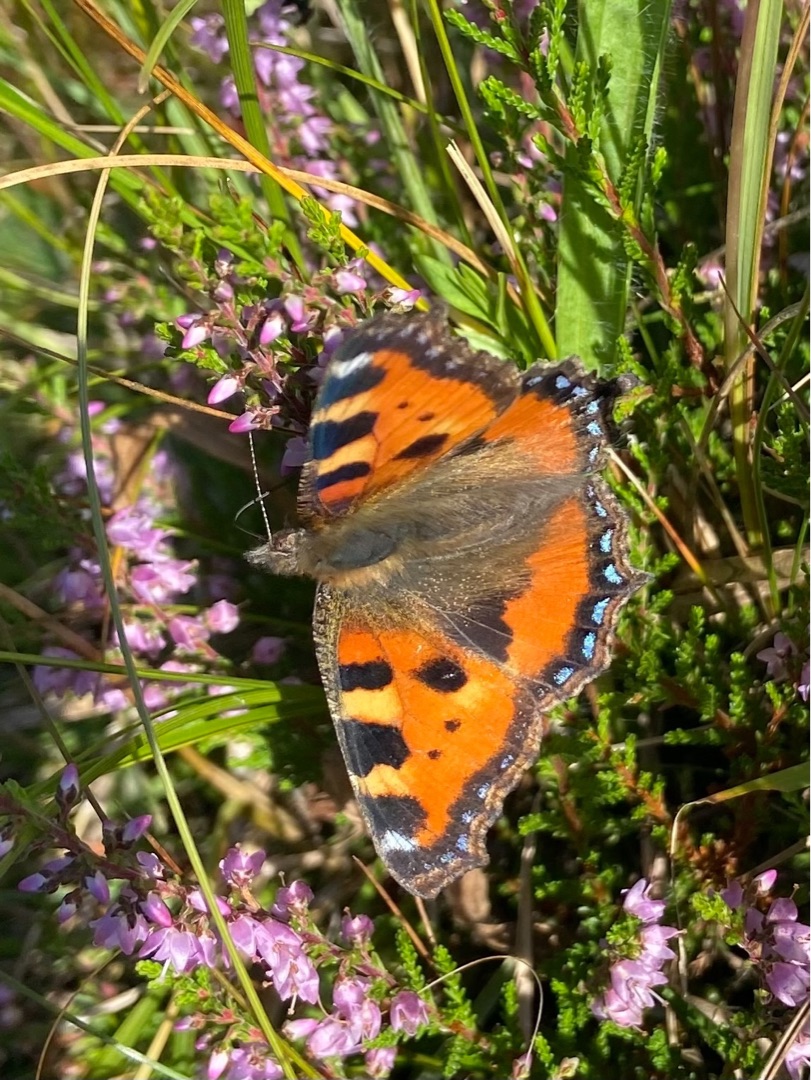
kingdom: Animalia
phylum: Arthropoda
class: Insecta
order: Lepidoptera
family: Nymphalidae
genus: Aglais
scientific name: Aglais urticae
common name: Nældens takvinge
